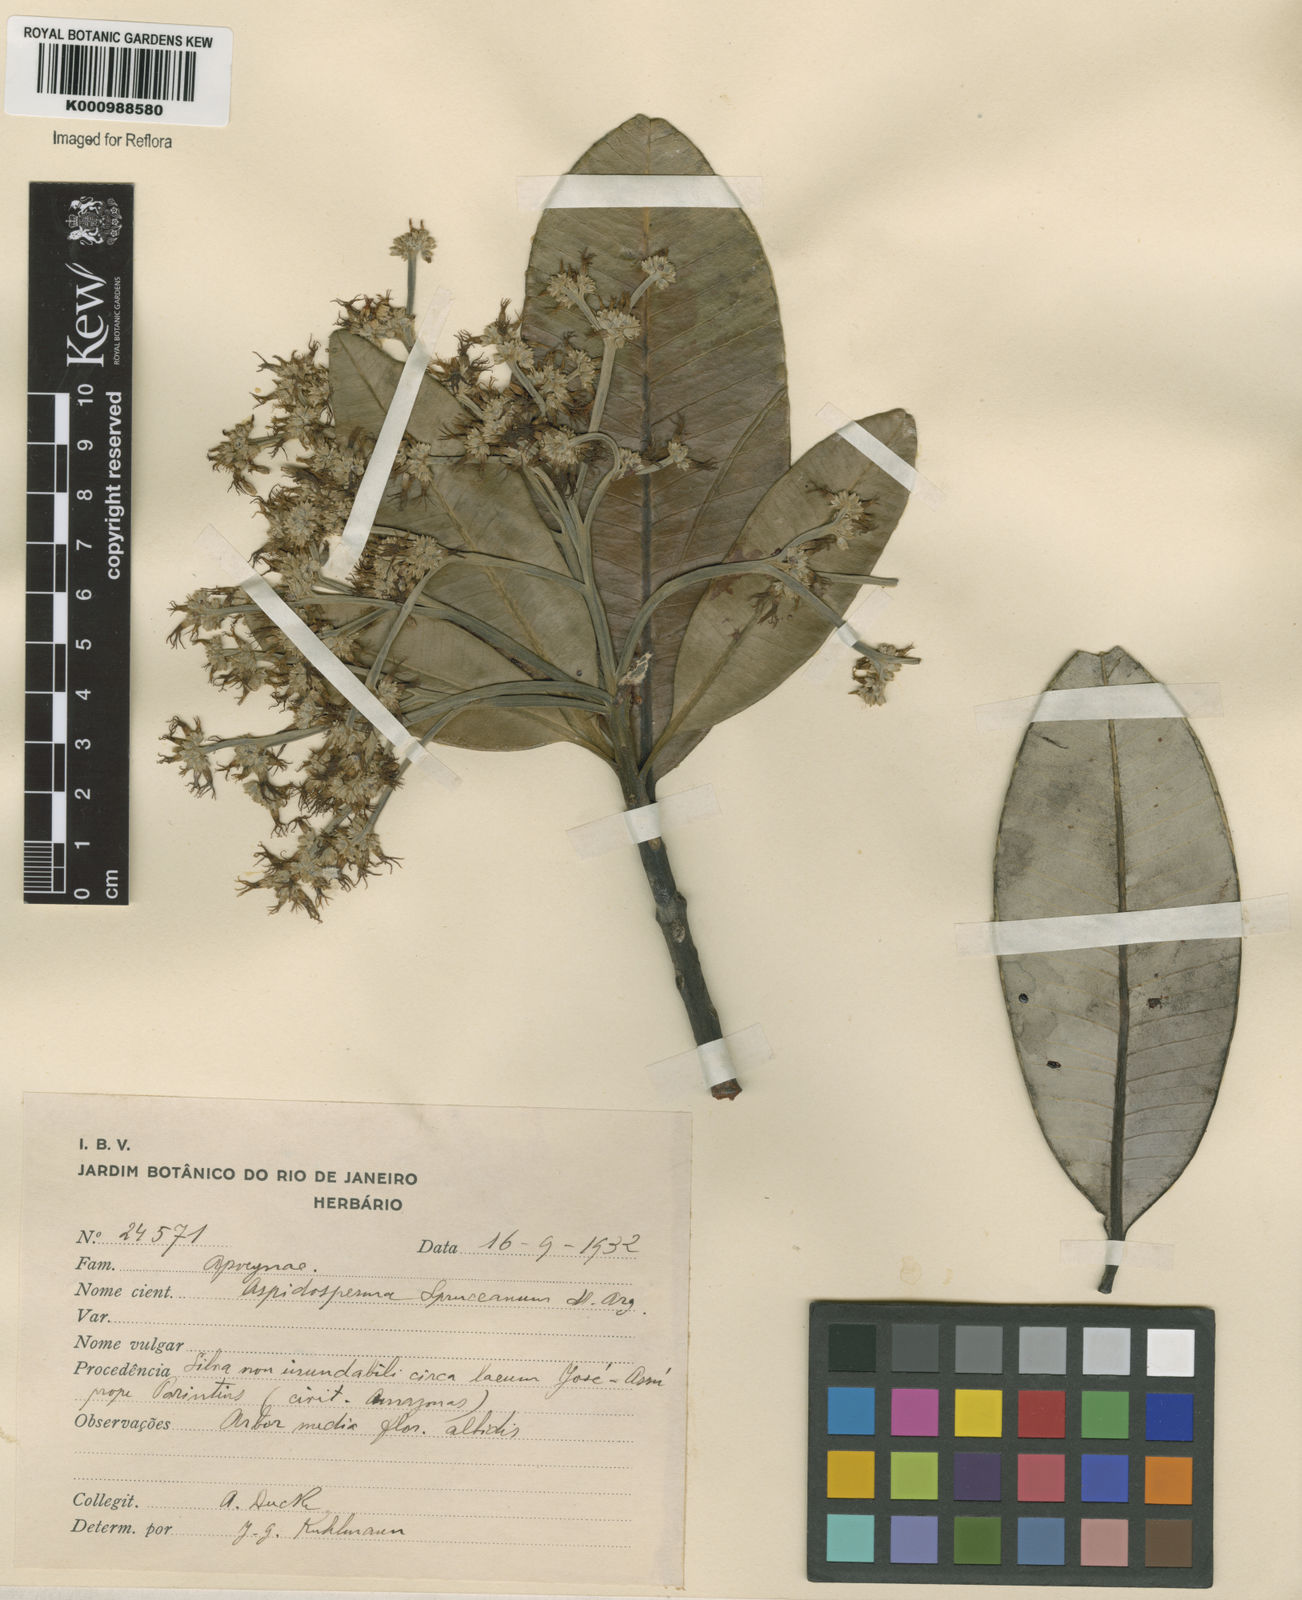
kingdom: Plantae
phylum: Tracheophyta
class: Magnoliopsida
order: Gentianales
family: Apocynaceae
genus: Aspidosperma
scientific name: Aspidosperma
